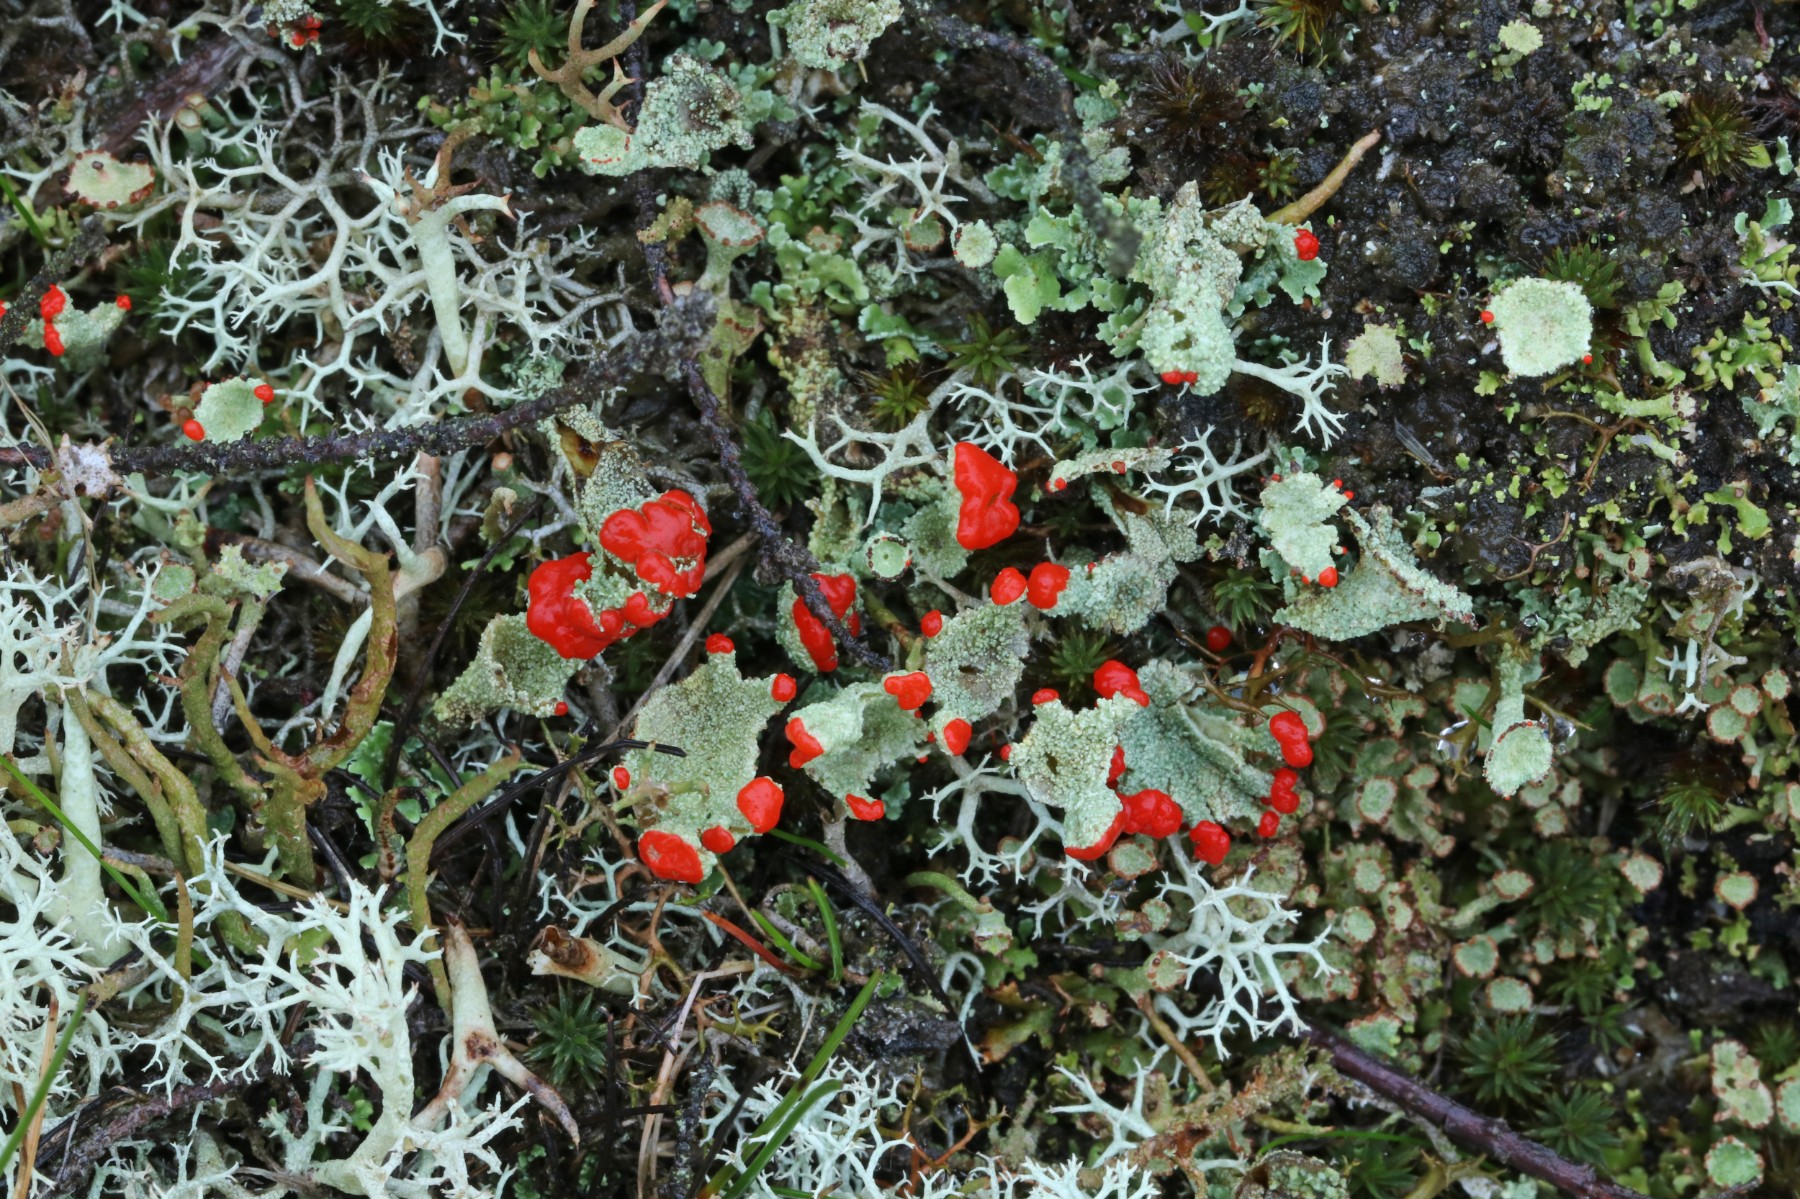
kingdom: Fungi
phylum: Ascomycota
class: Lecanoromycetes
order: Lecanorales
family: Cladoniaceae
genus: Cladonia
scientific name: Cladonia diversa
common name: rød bægerlav
